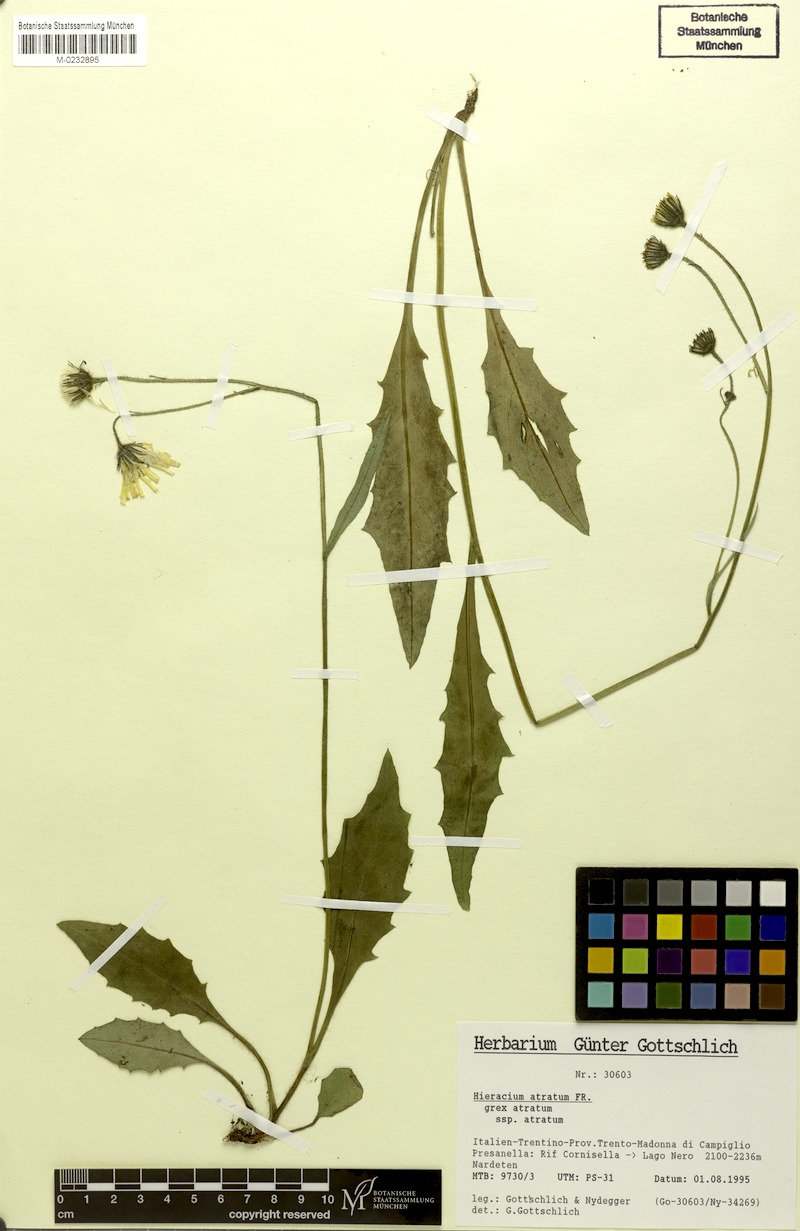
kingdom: Plantae
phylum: Tracheophyta
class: Magnoliopsida
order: Asterales
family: Asteraceae
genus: Hieracium
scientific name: Hieracium atratum
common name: Polar hawkweed
